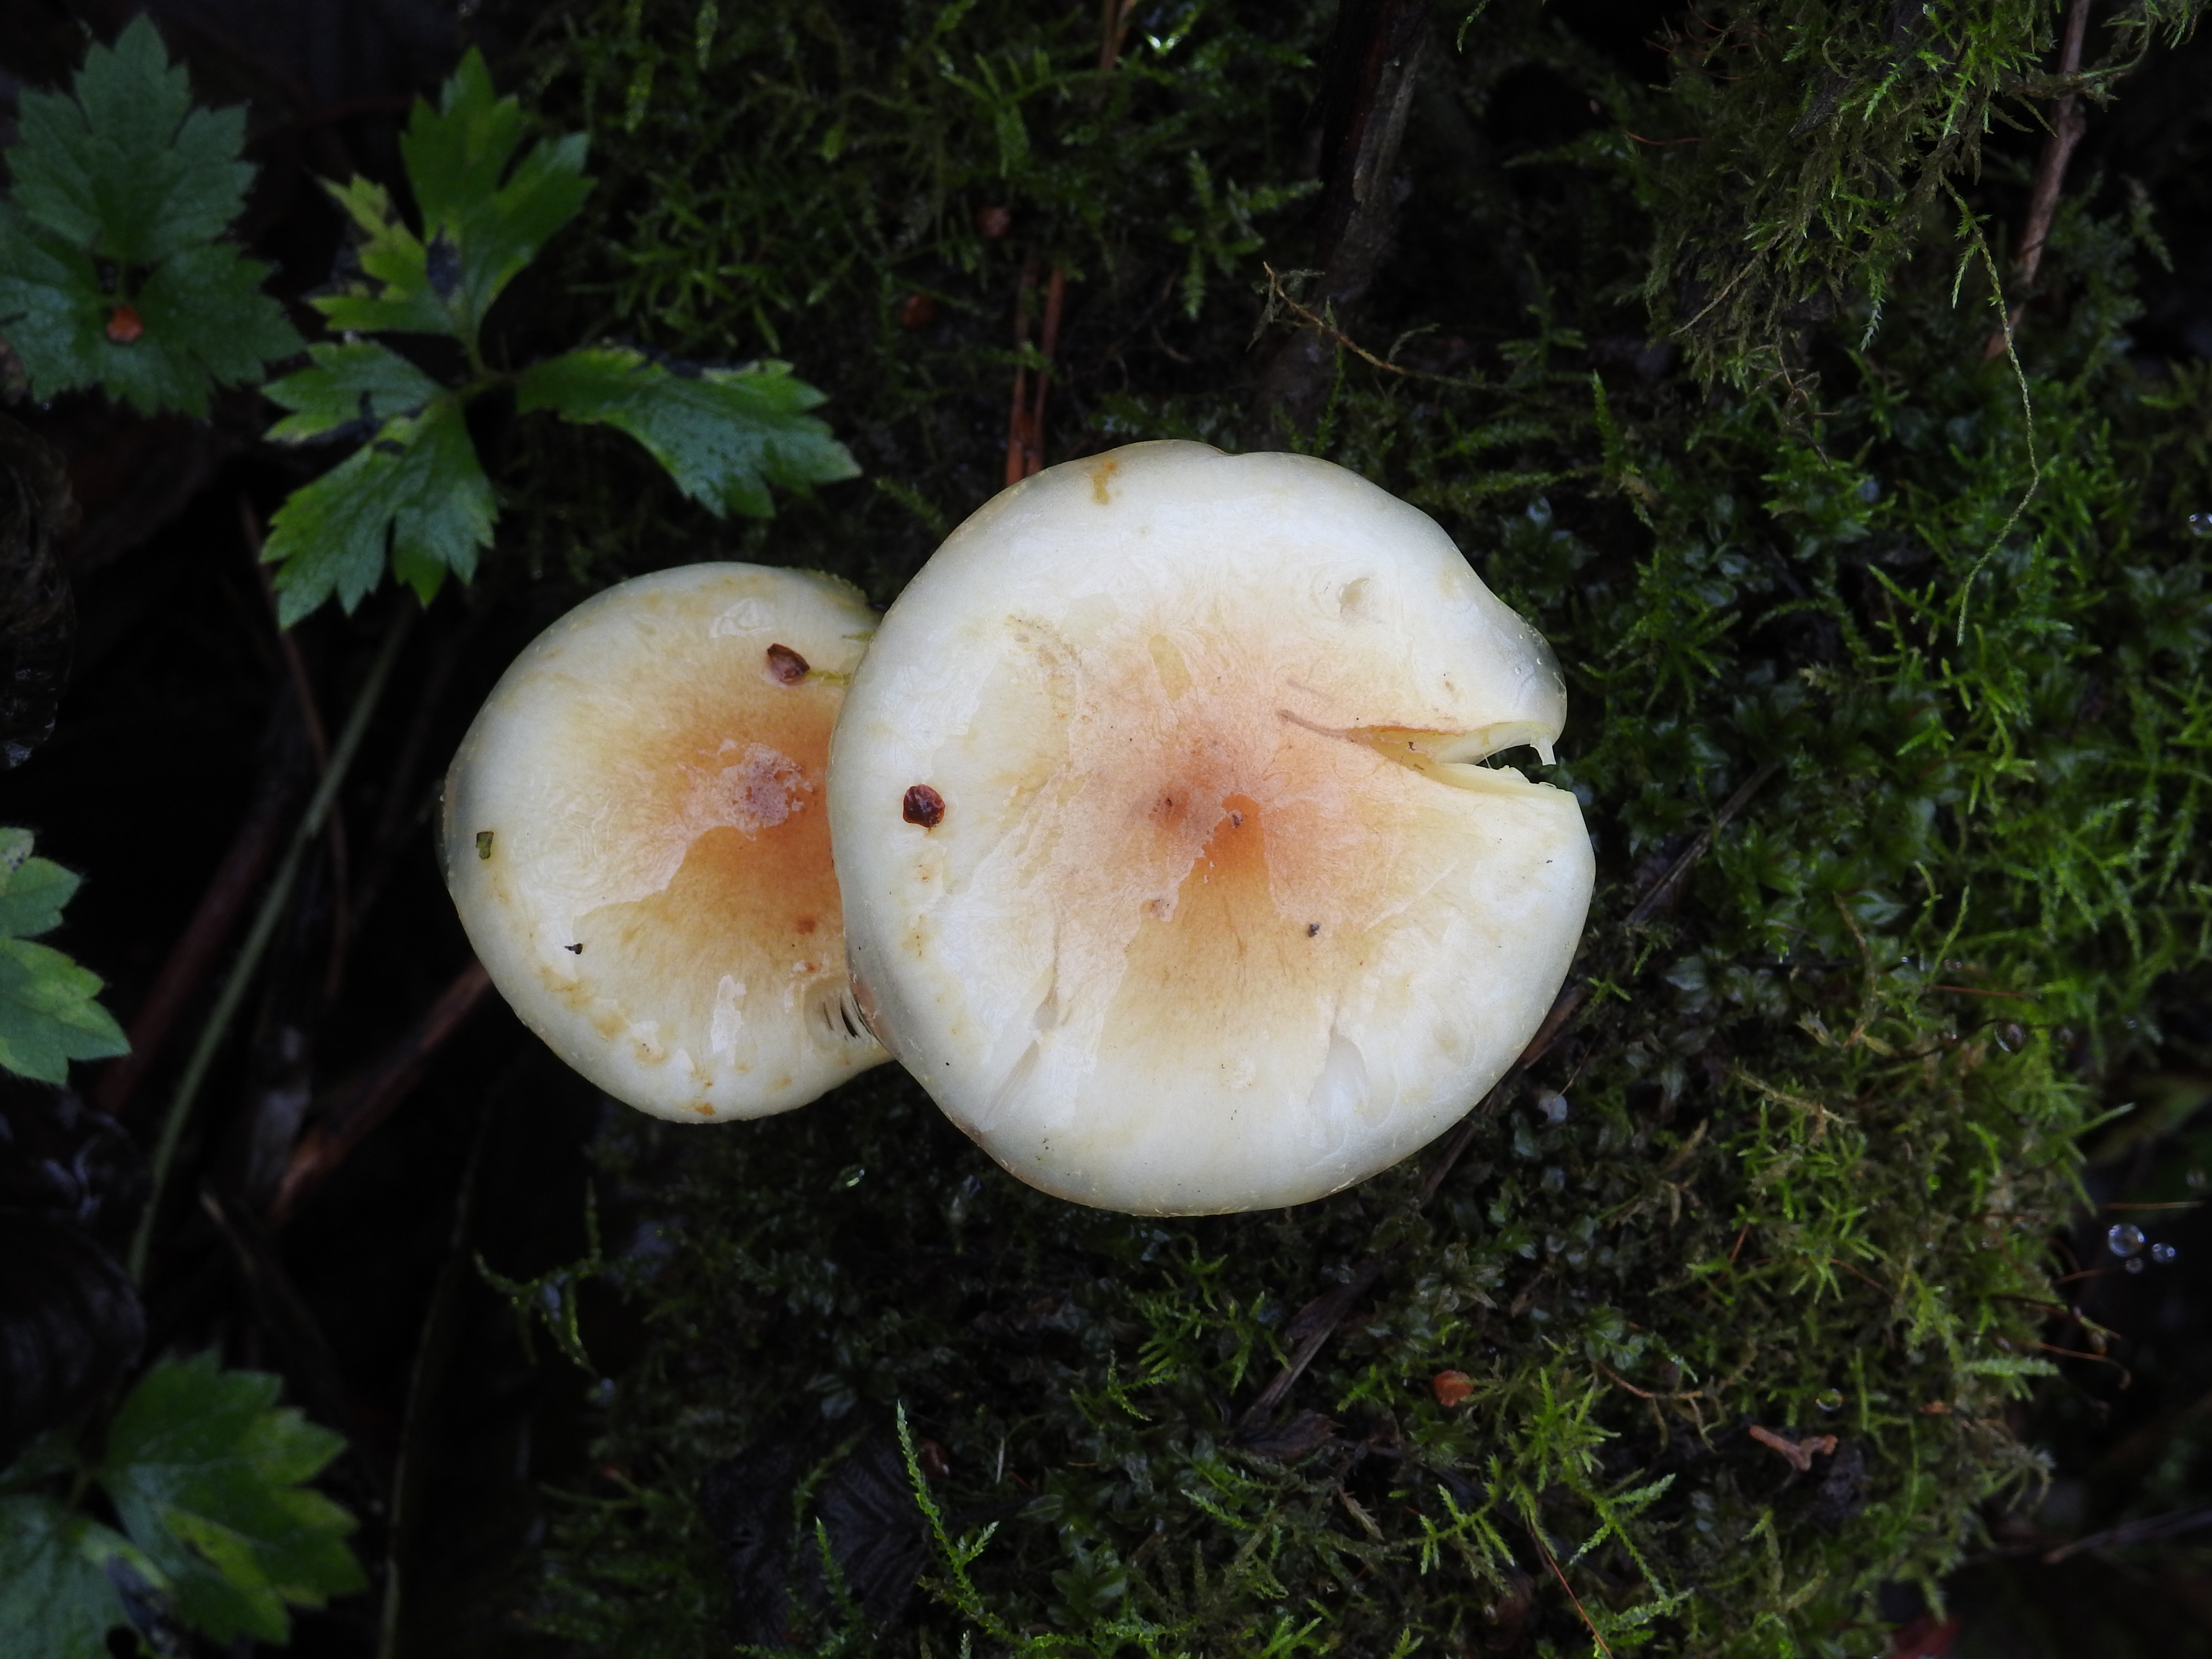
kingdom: Fungi
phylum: Basidiomycota
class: Agaricomycetes
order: Agaricales
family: Strophariaceae
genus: Pholiota
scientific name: Pholiota lenta
